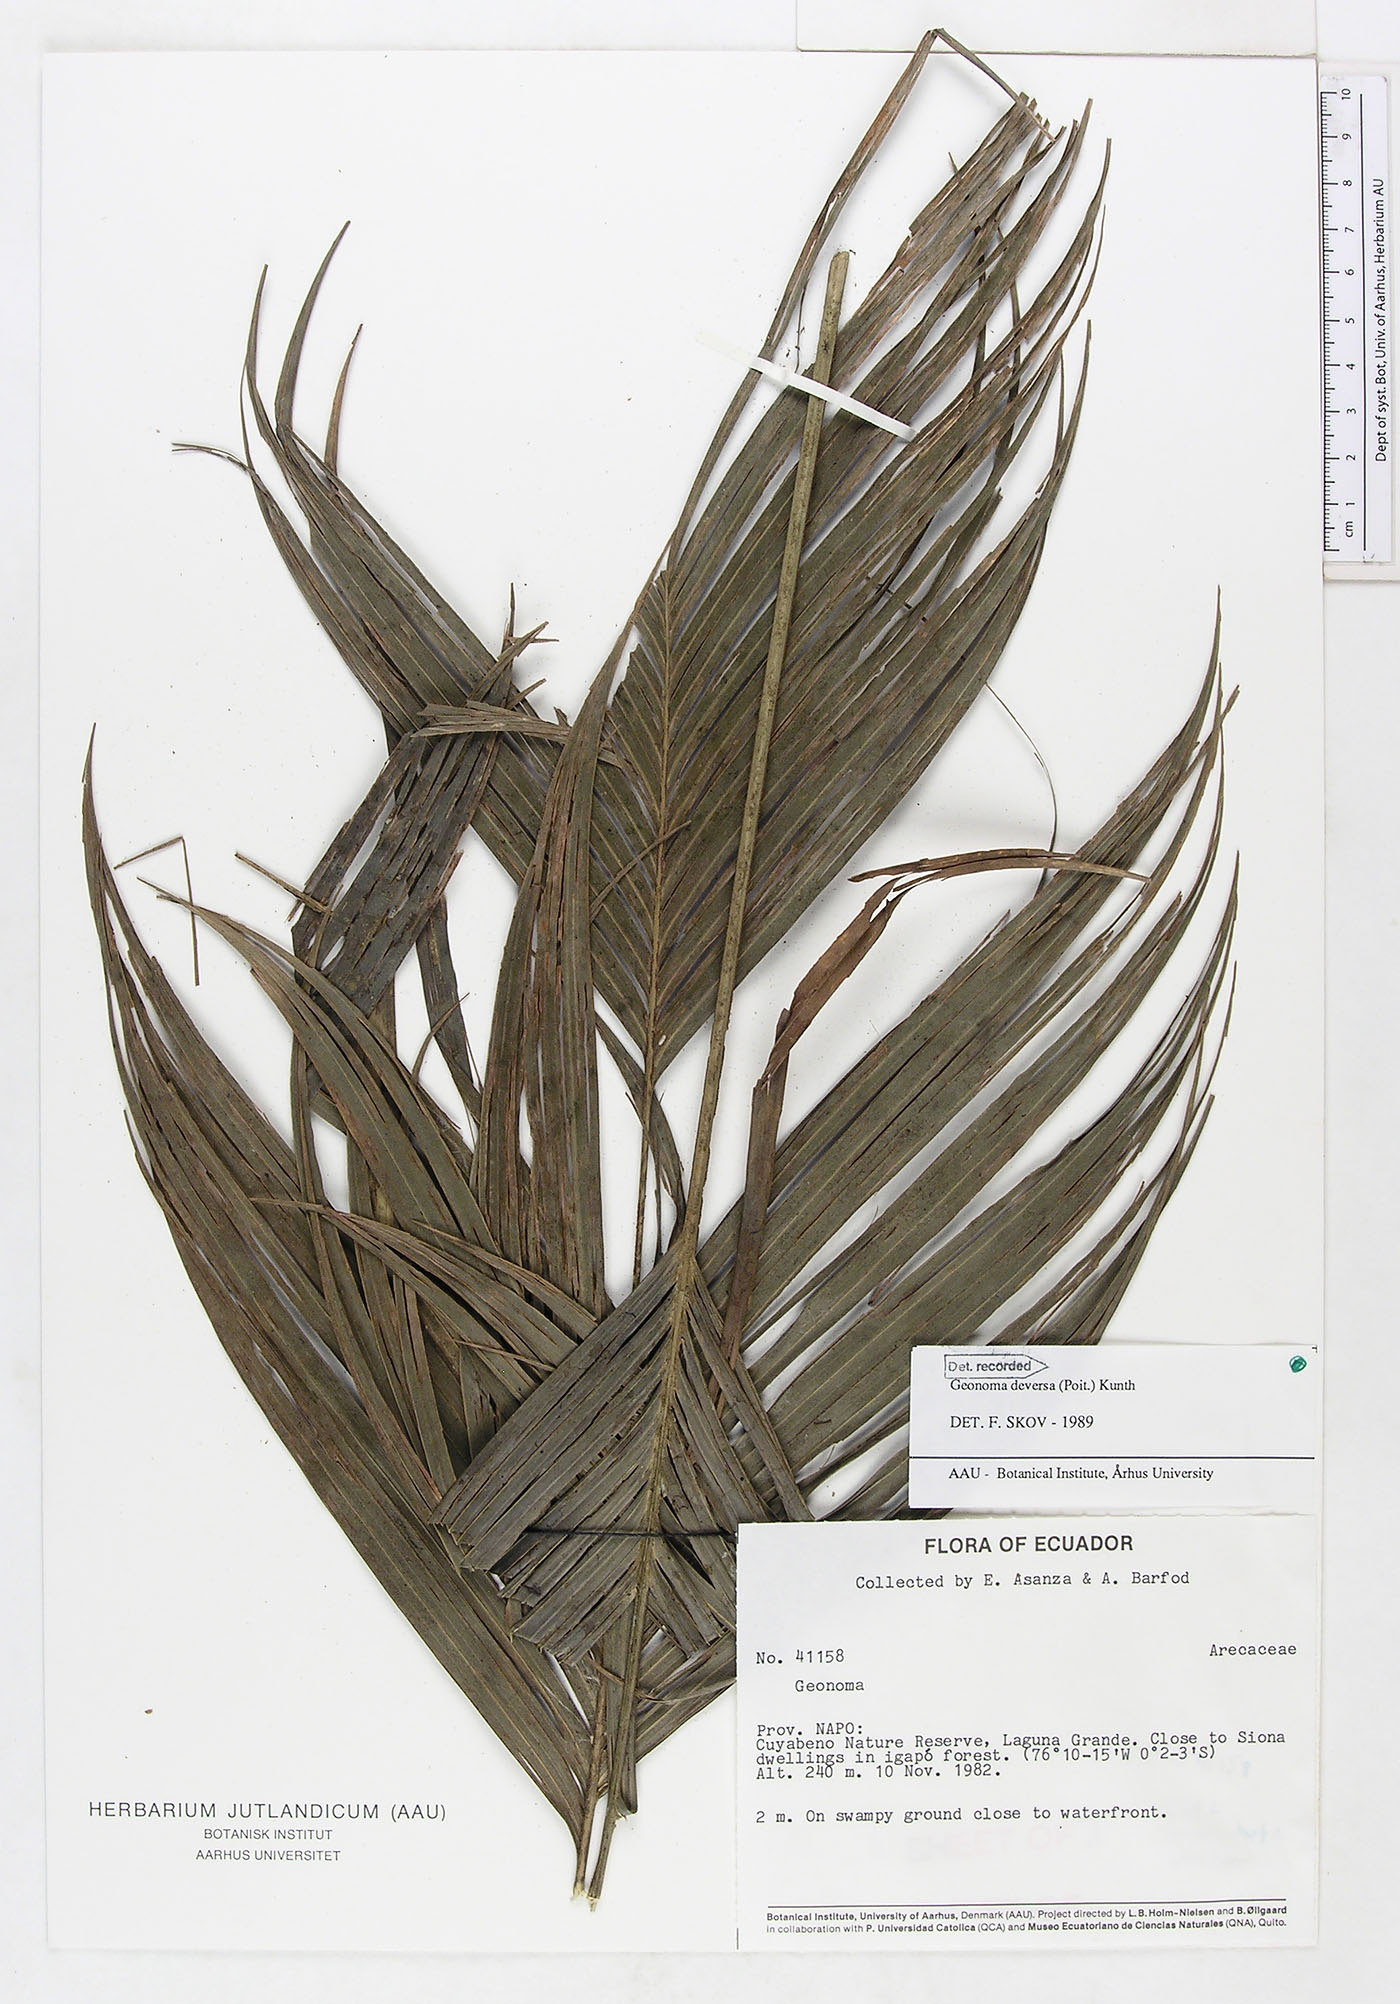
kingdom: Plantae
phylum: Tracheophyta
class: Liliopsida
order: Arecales
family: Arecaceae
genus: Geonoma
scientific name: Geonoma deversa
